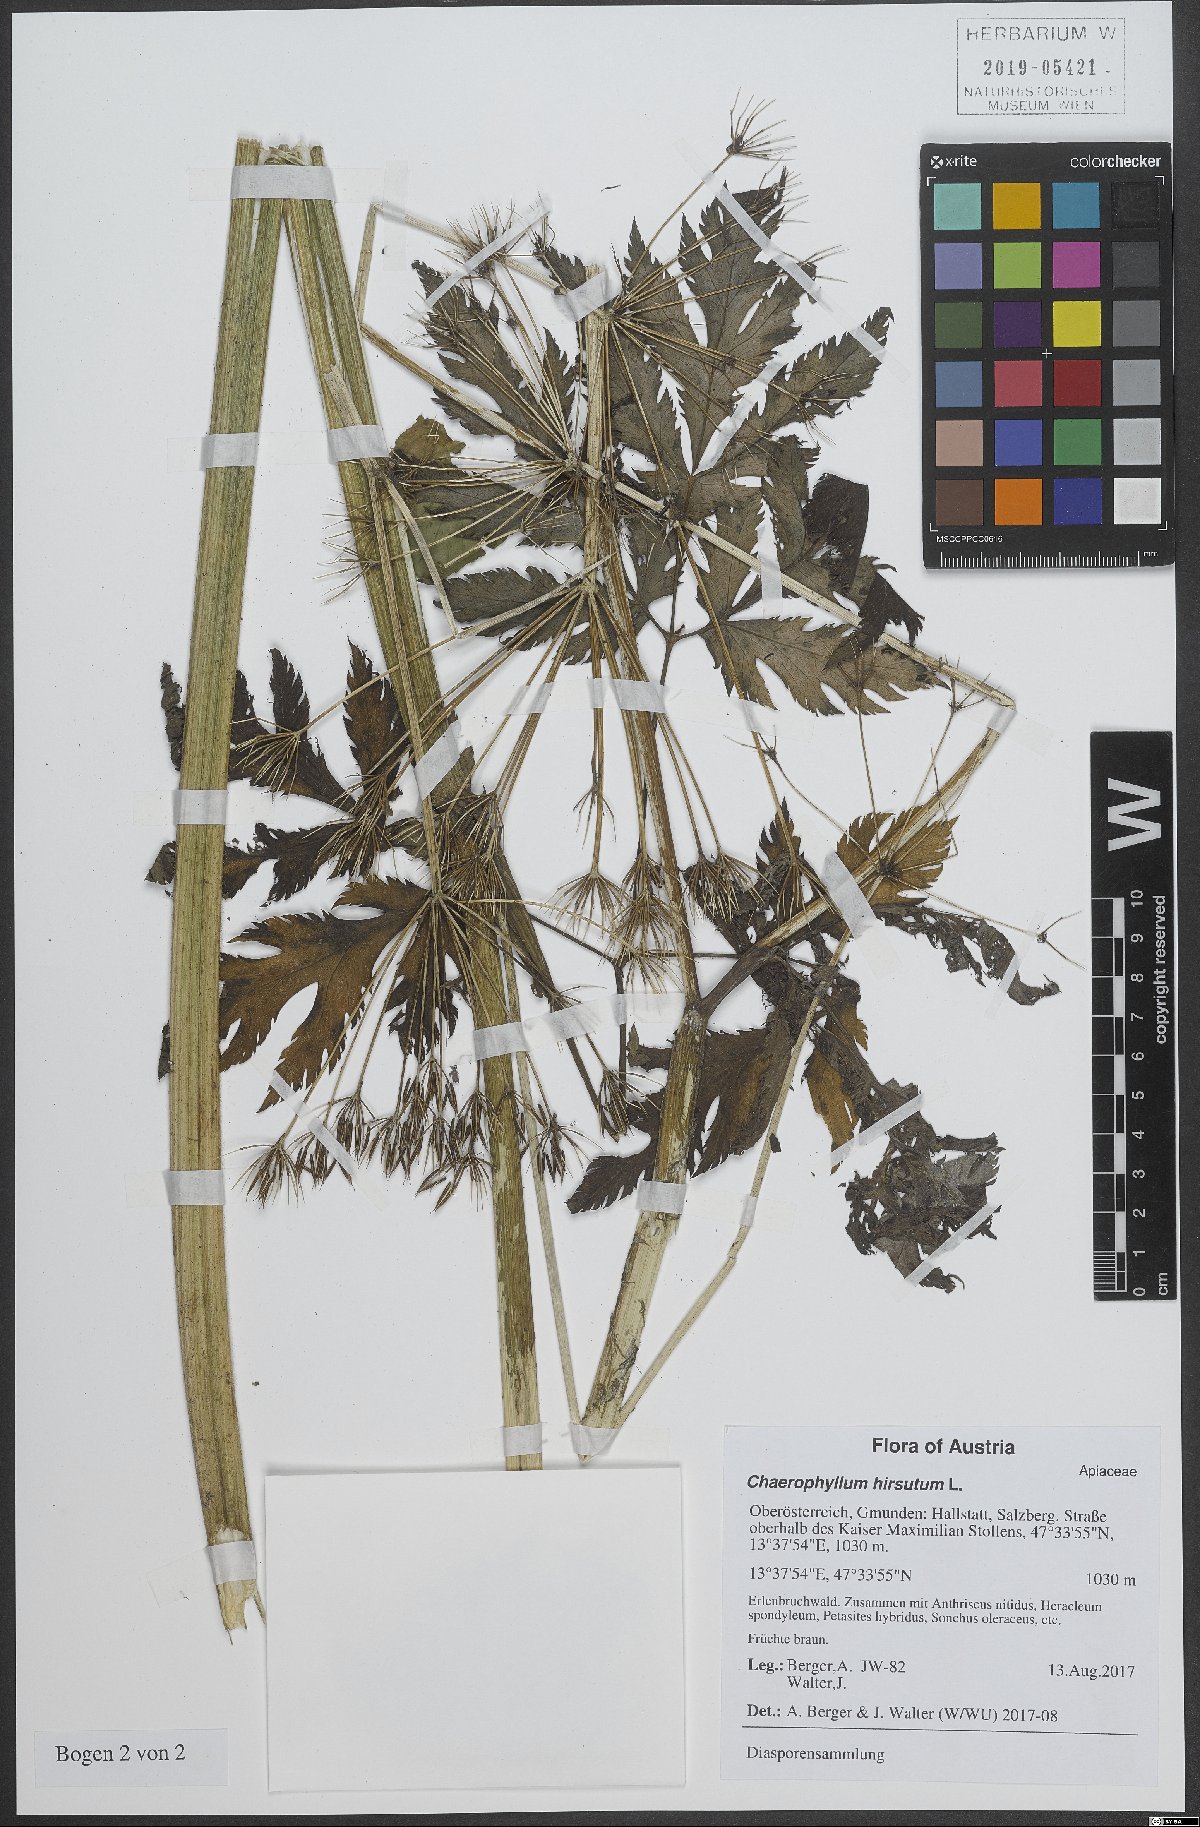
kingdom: Plantae
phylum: Tracheophyta
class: Magnoliopsida
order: Apiales
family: Apiaceae
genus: Chaerophyllum
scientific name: Chaerophyllum hirsutum
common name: Hairy chervil
